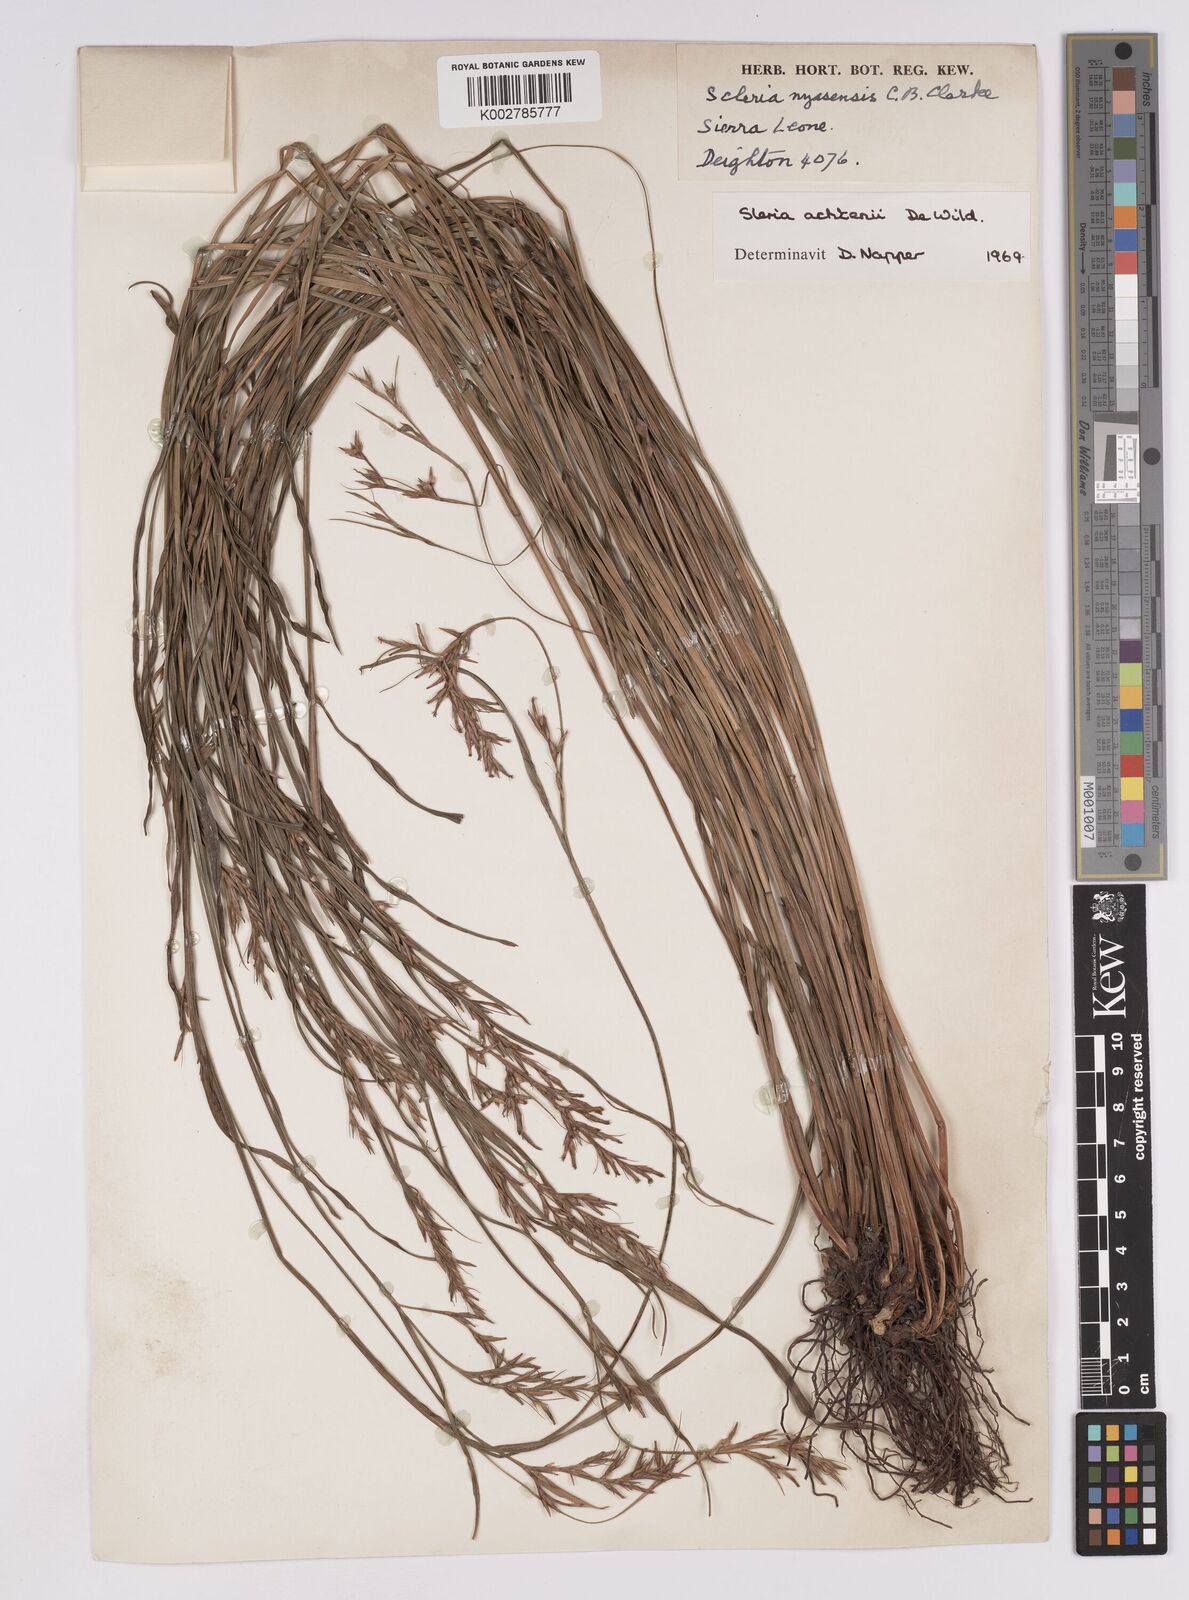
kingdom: Plantae
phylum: Tracheophyta
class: Liliopsida
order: Poales
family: Cyperaceae
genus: Scleria
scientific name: Scleria achtenii
